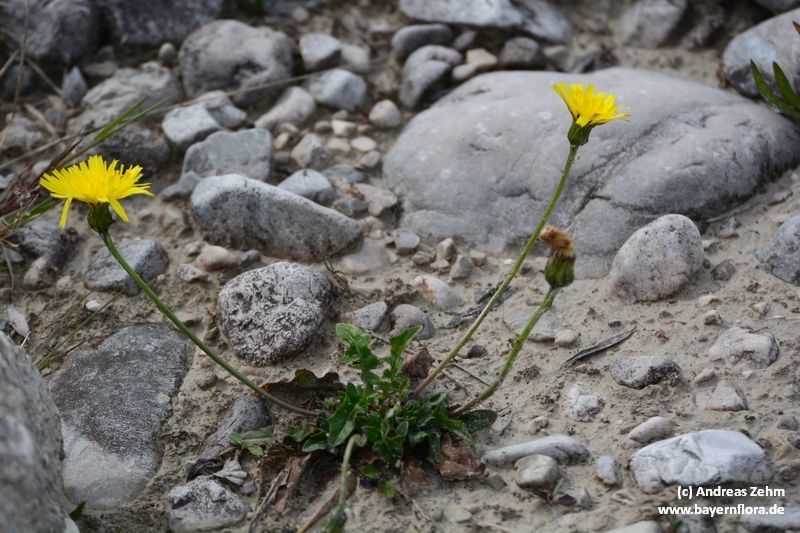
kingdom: Plantae
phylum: Tracheophyta
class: Magnoliopsida
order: Asterales
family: Asteraceae
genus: Leontodon
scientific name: Leontodon hyoseroides
